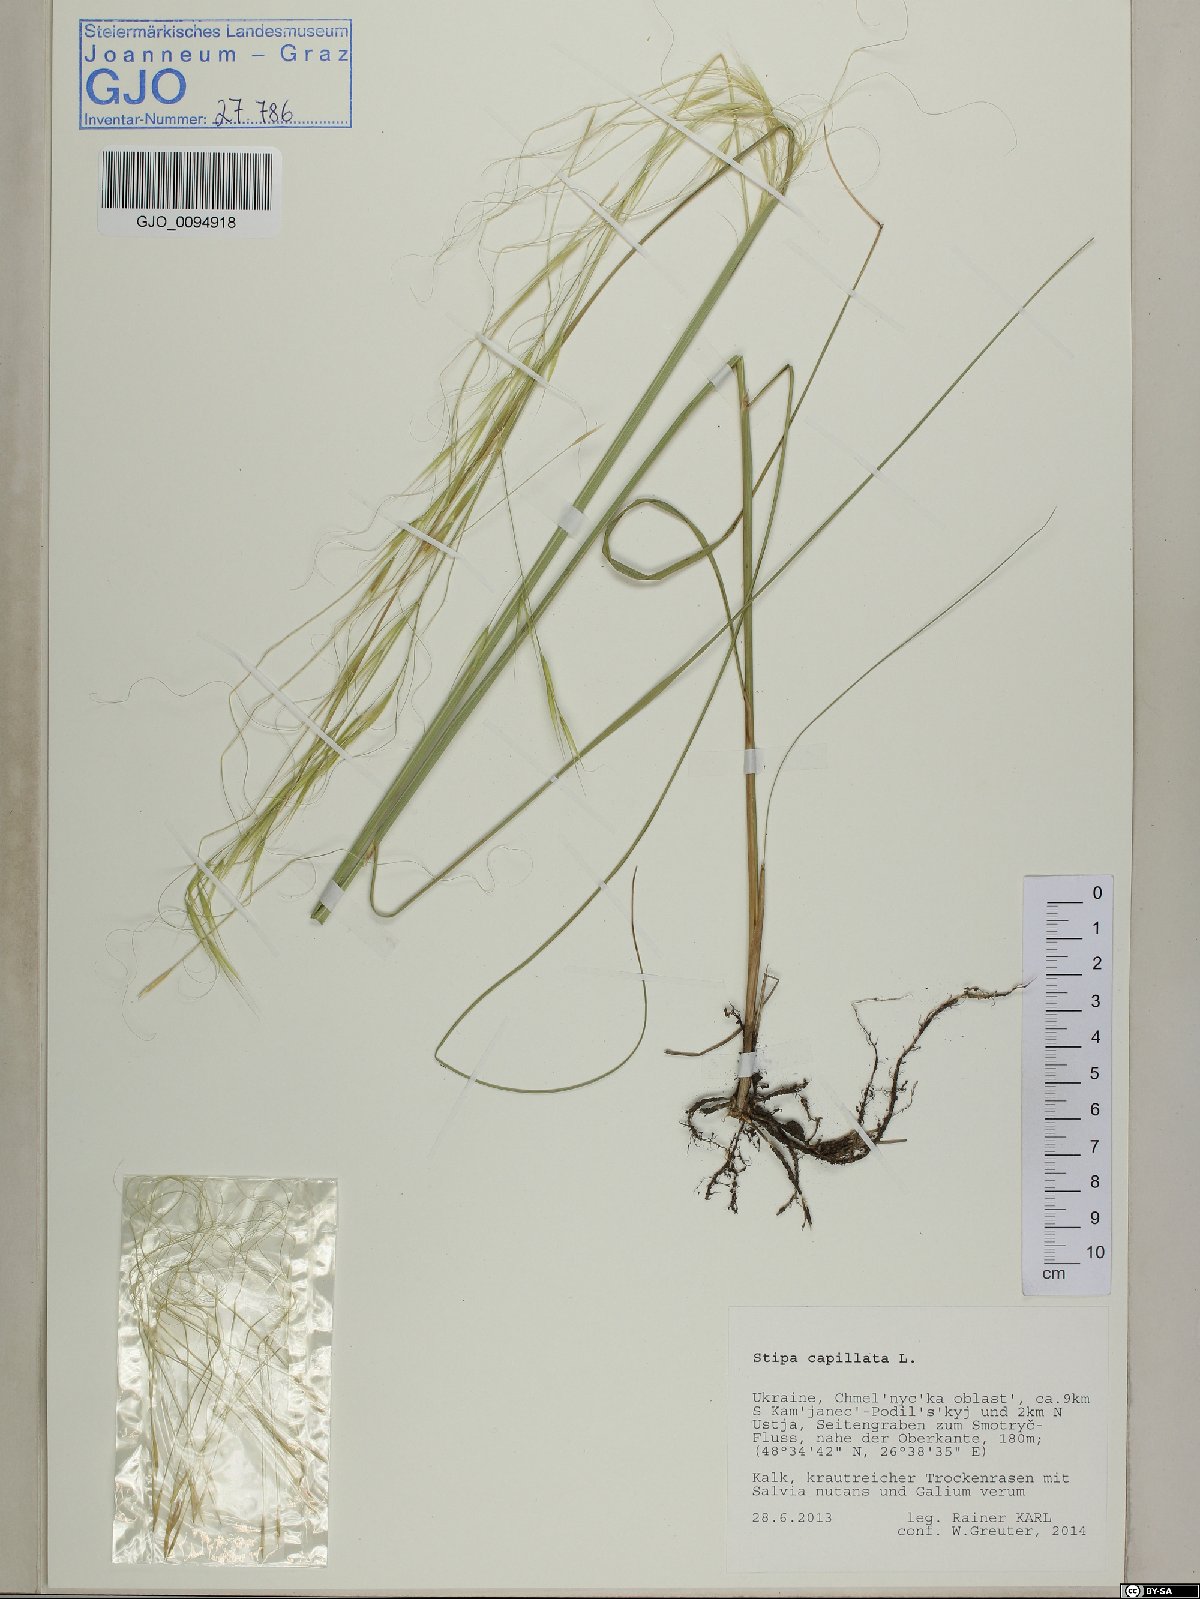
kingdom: Plantae
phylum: Tracheophyta
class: Liliopsida
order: Poales
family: Poaceae
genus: Stipa
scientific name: Stipa capillata
